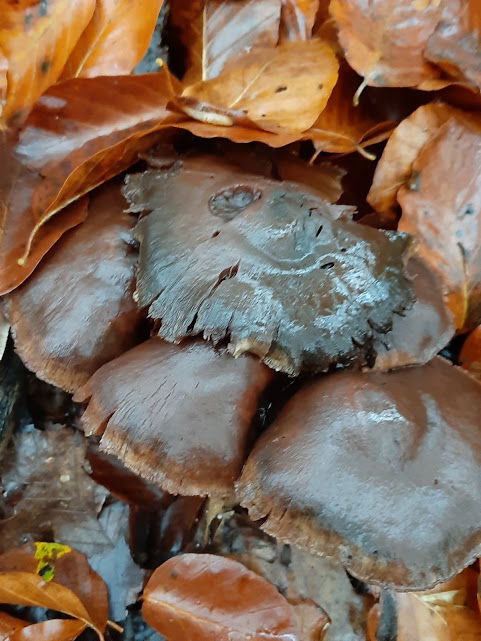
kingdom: Fungi
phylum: Basidiomycota
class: Agaricomycetes
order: Agaricales
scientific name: Agaricales
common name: champignonordenen
